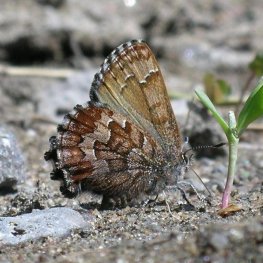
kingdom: Animalia
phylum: Arthropoda
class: Insecta
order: Lepidoptera
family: Lycaenidae
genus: Incisalia
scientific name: Incisalia niphon
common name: Eastern Pine Elfin
